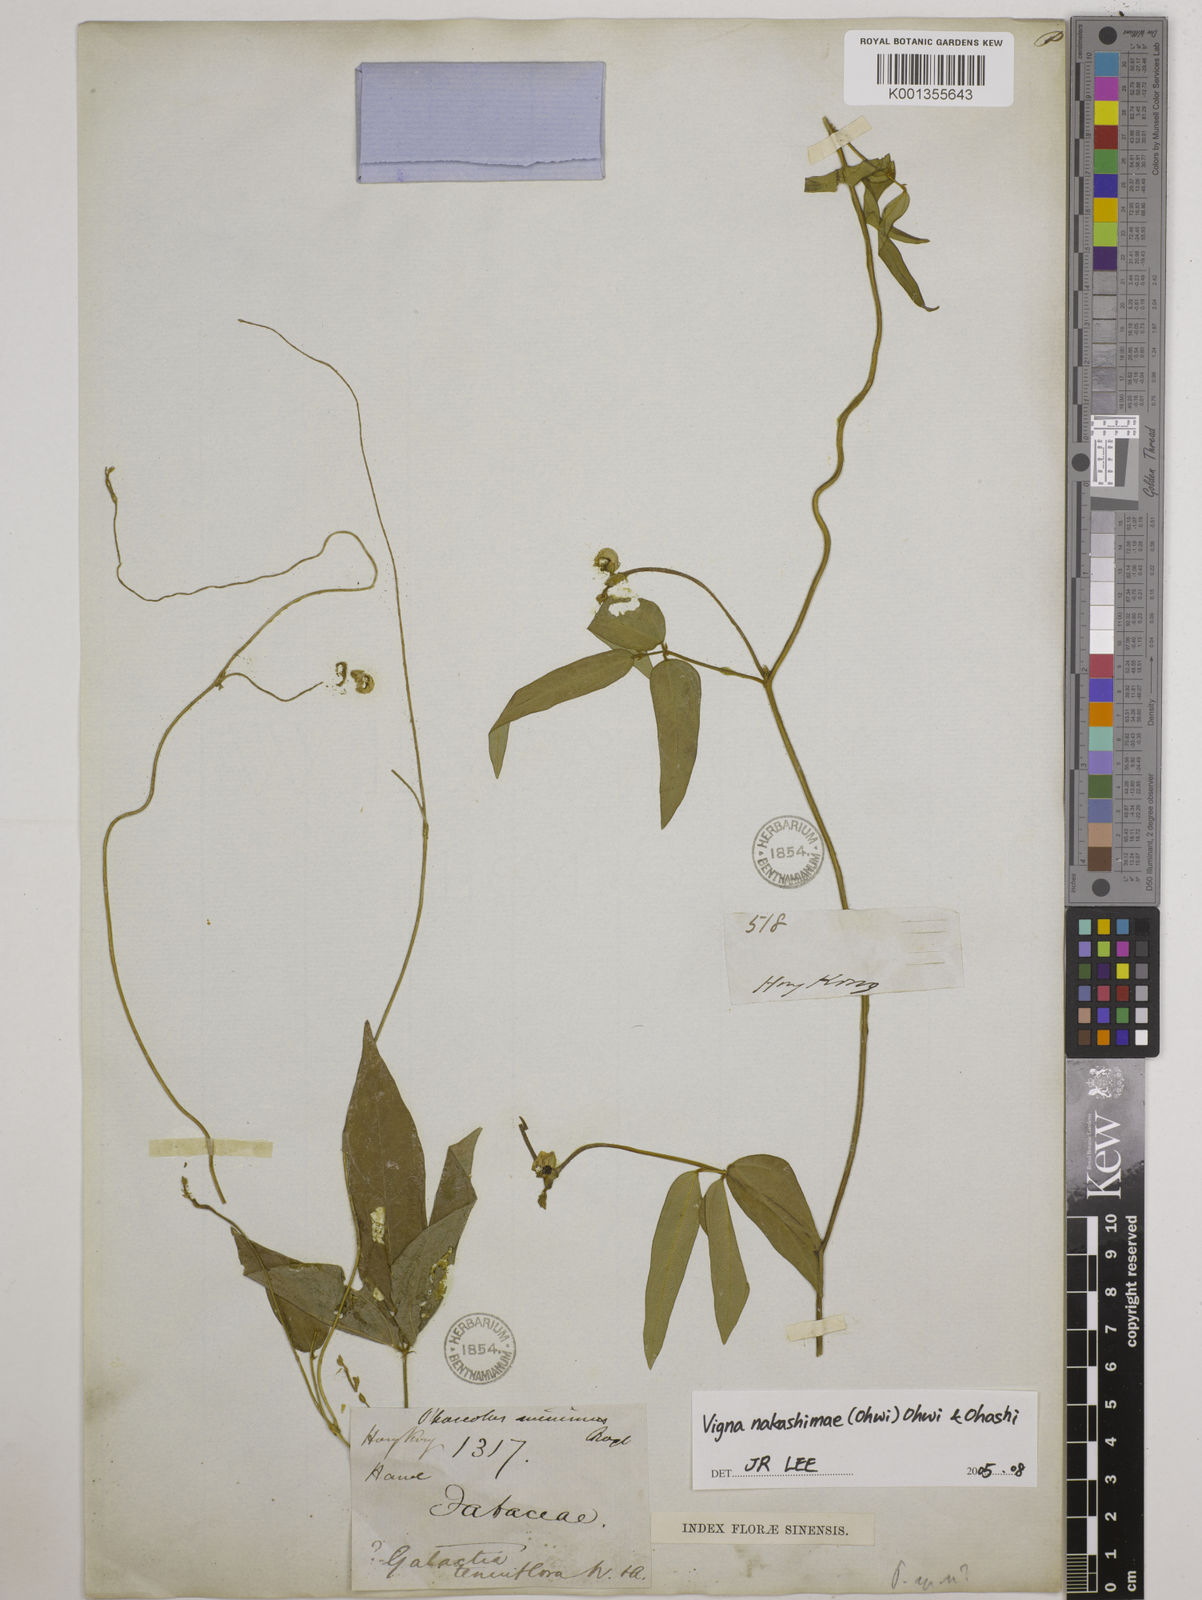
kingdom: Plantae
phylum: Tracheophyta
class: Magnoliopsida
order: Fabales
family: Fabaceae
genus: Vigna
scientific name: Vigna minima
